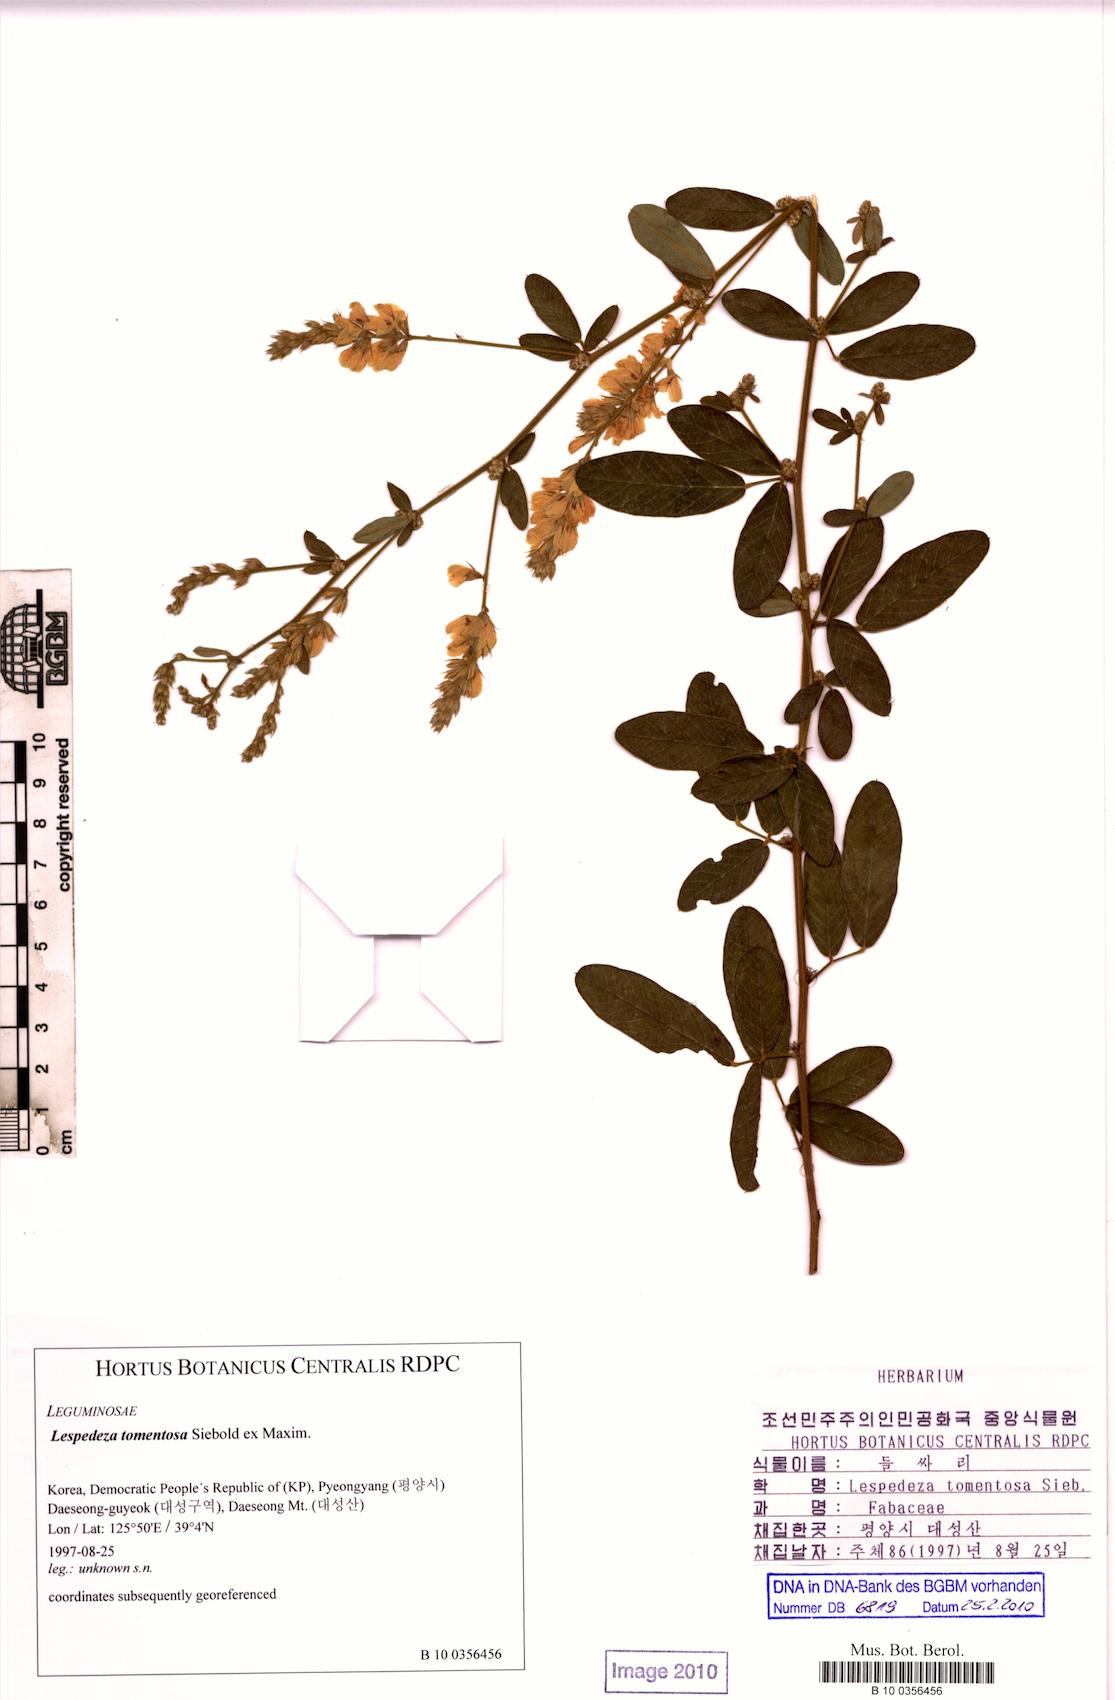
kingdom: Plantae
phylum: Tracheophyta
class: Magnoliopsida
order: Fabales
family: Fabaceae
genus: Lespedeza
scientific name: Lespedeza tomentosa
